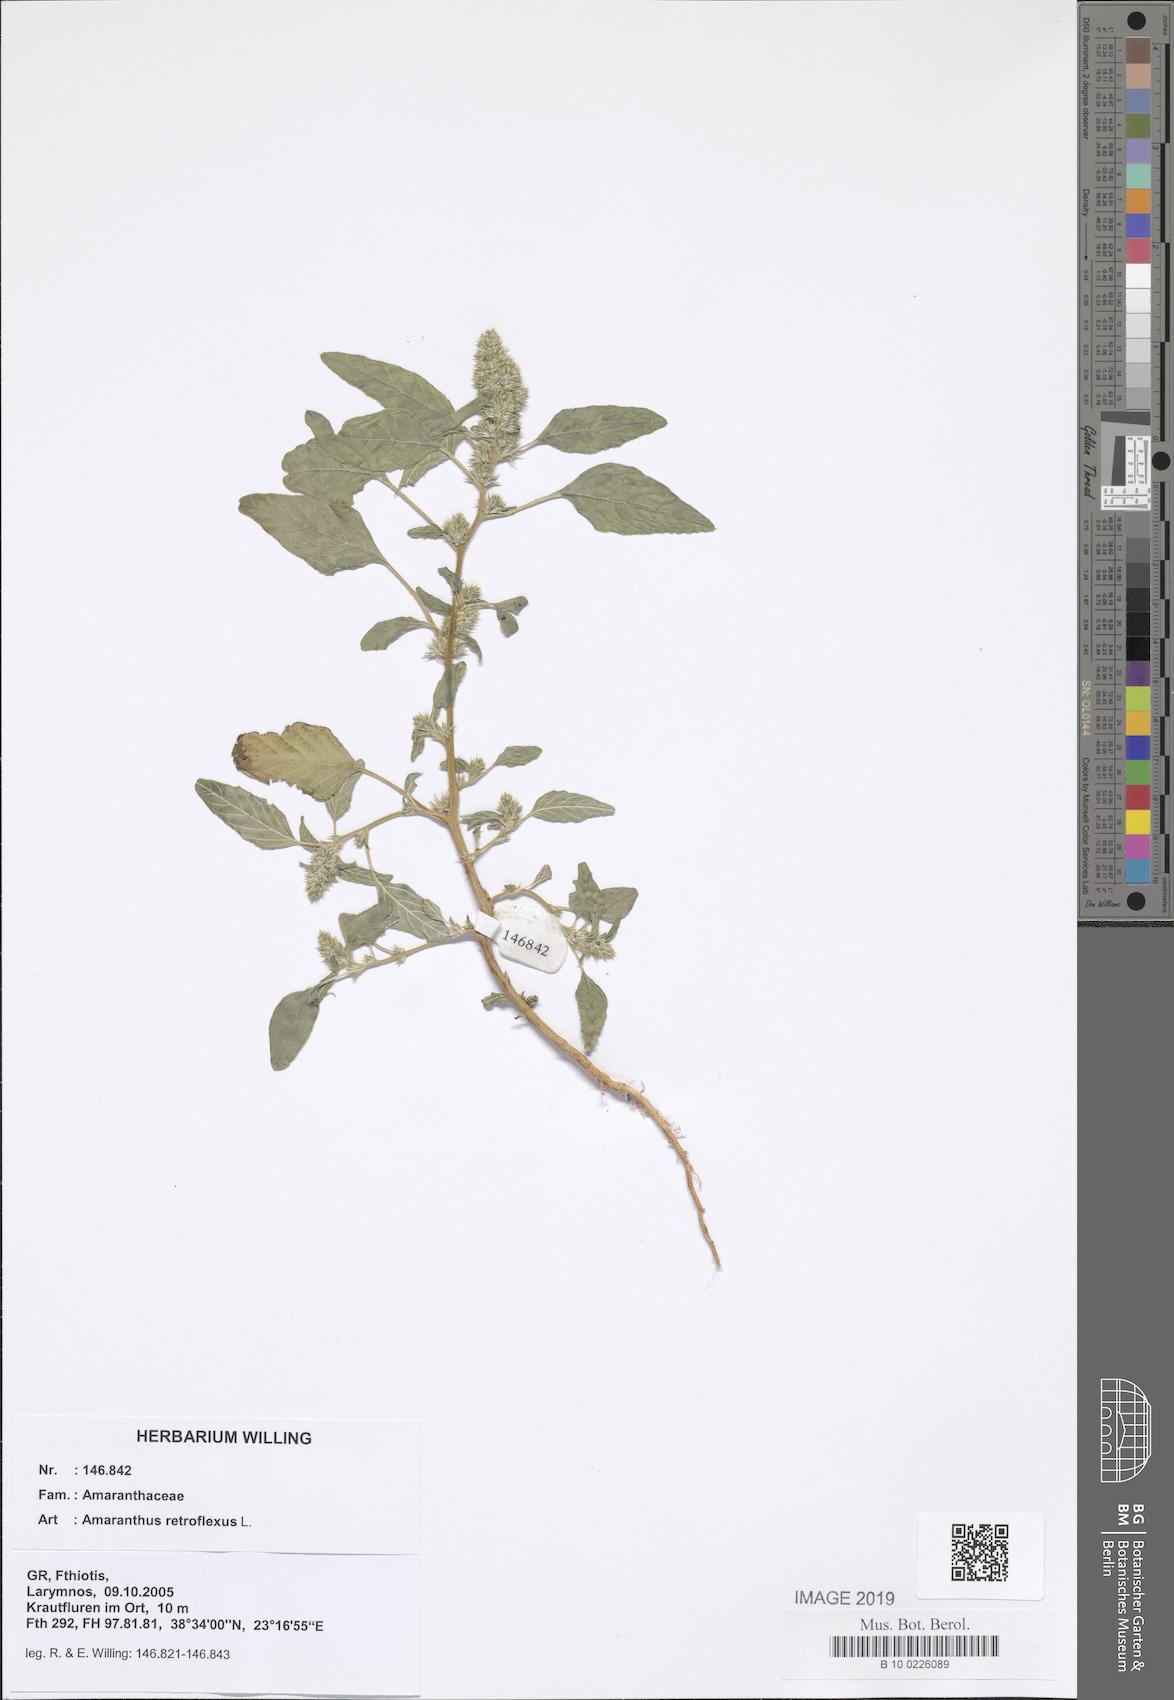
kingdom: Plantae
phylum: Tracheophyta
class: Magnoliopsida
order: Caryophyllales
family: Amaranthaceae
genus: Amaranthus
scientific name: Amaranthus retroflexus
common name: Redroot amaranth
